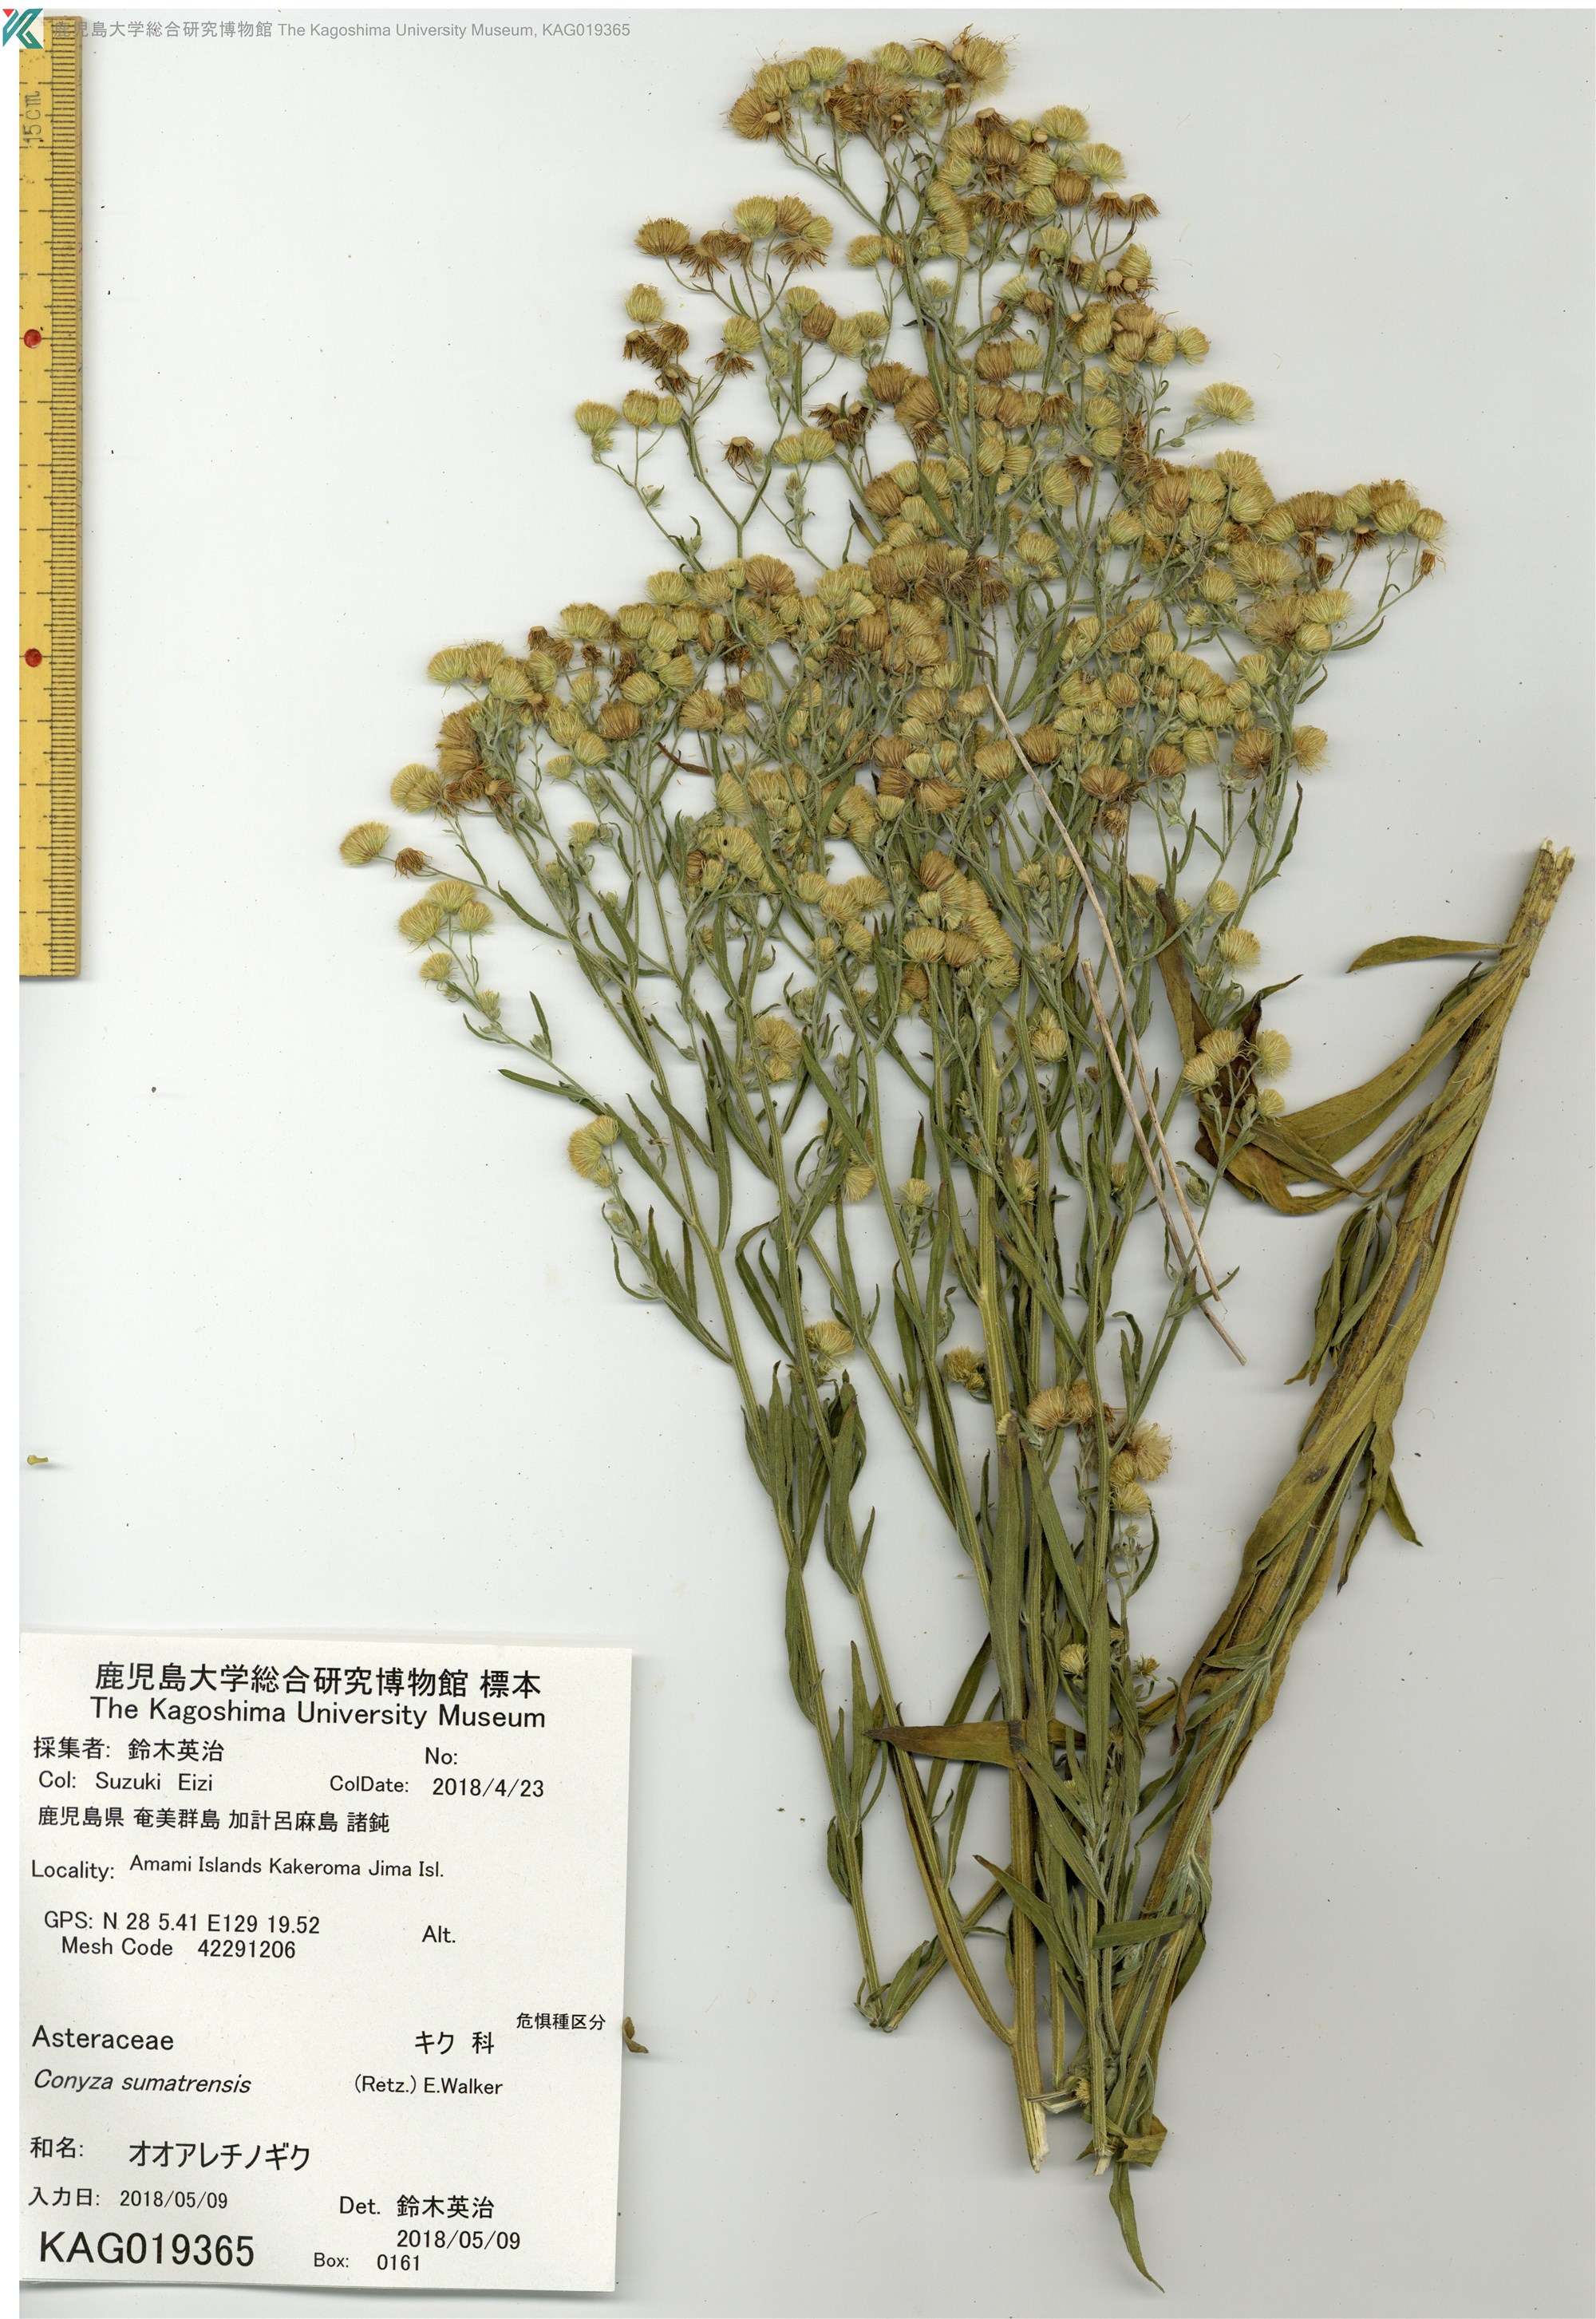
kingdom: Plantae
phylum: Tracheophyta
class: Magnoliopsida
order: Asterales
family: Asteraceae
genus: Erigeron
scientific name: Erigeron sumatrensis
